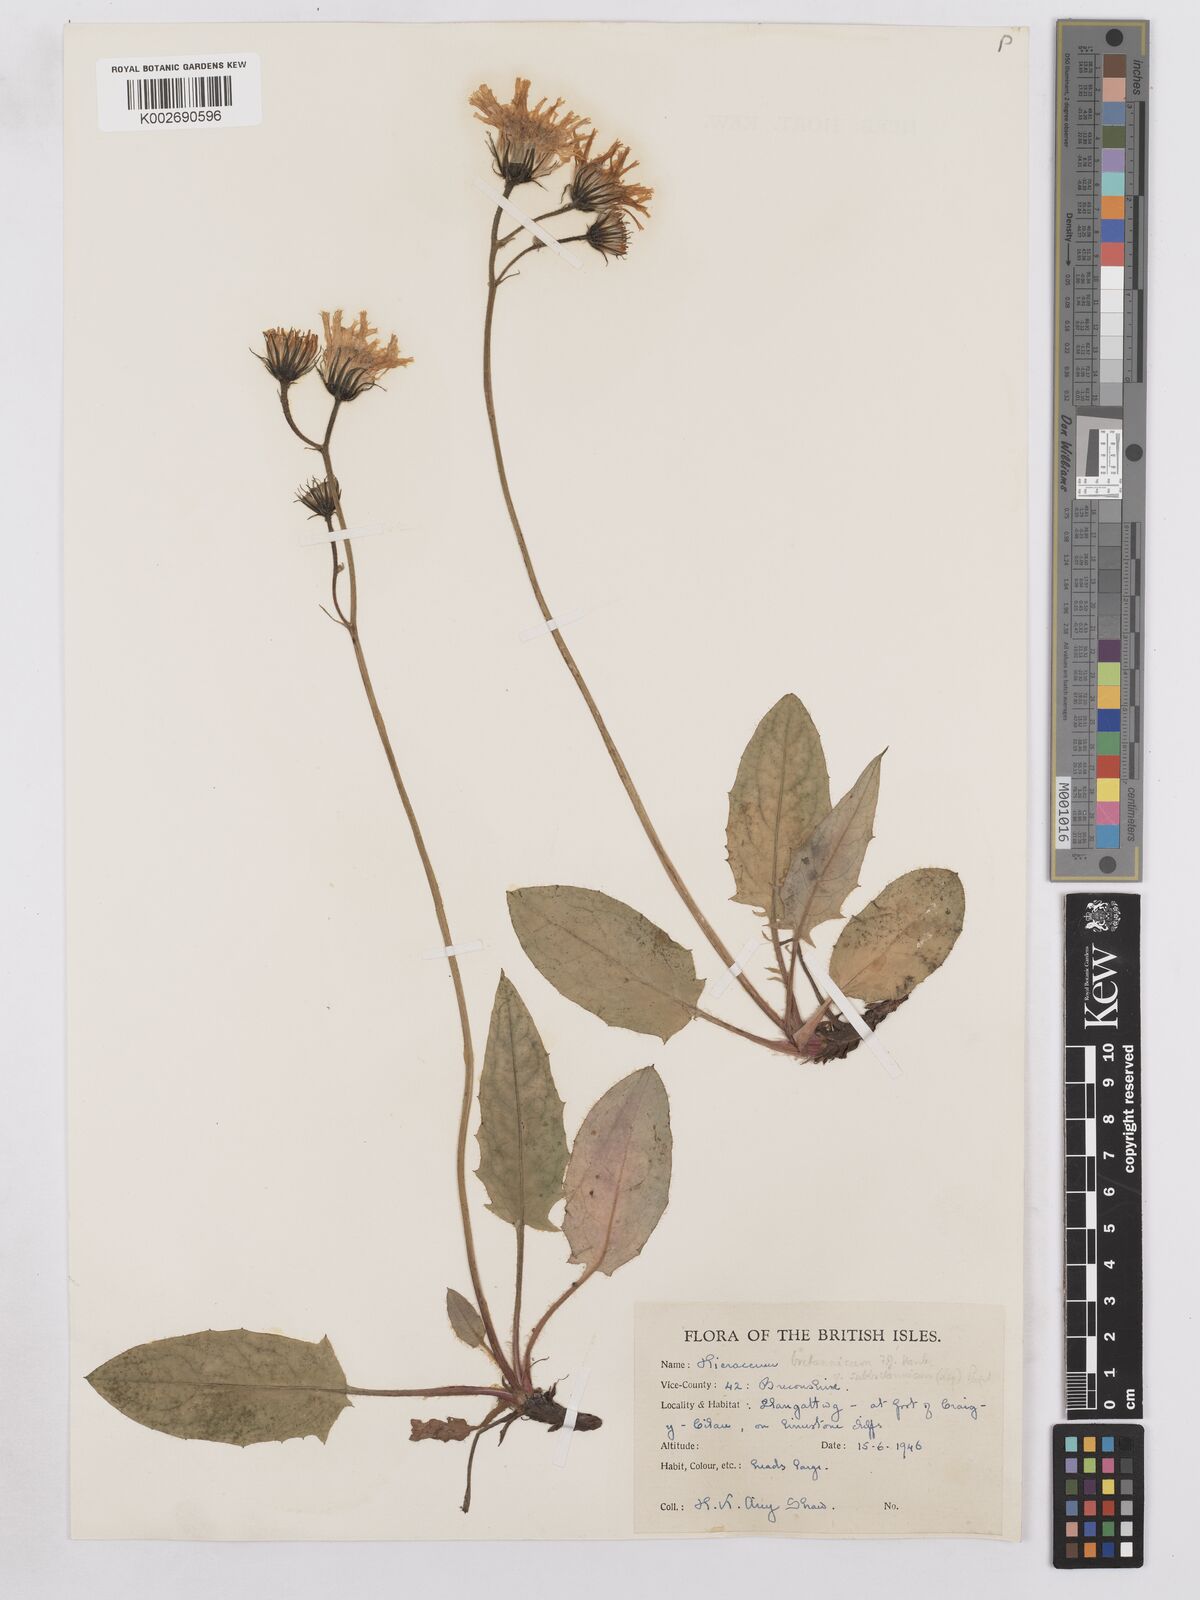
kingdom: Plantae
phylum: Tracheophyta
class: Magnoliopsida
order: Asterales
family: Asteraceae
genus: Hieracium
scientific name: Hieracium subbritannicum
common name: Limestone hawkweed
